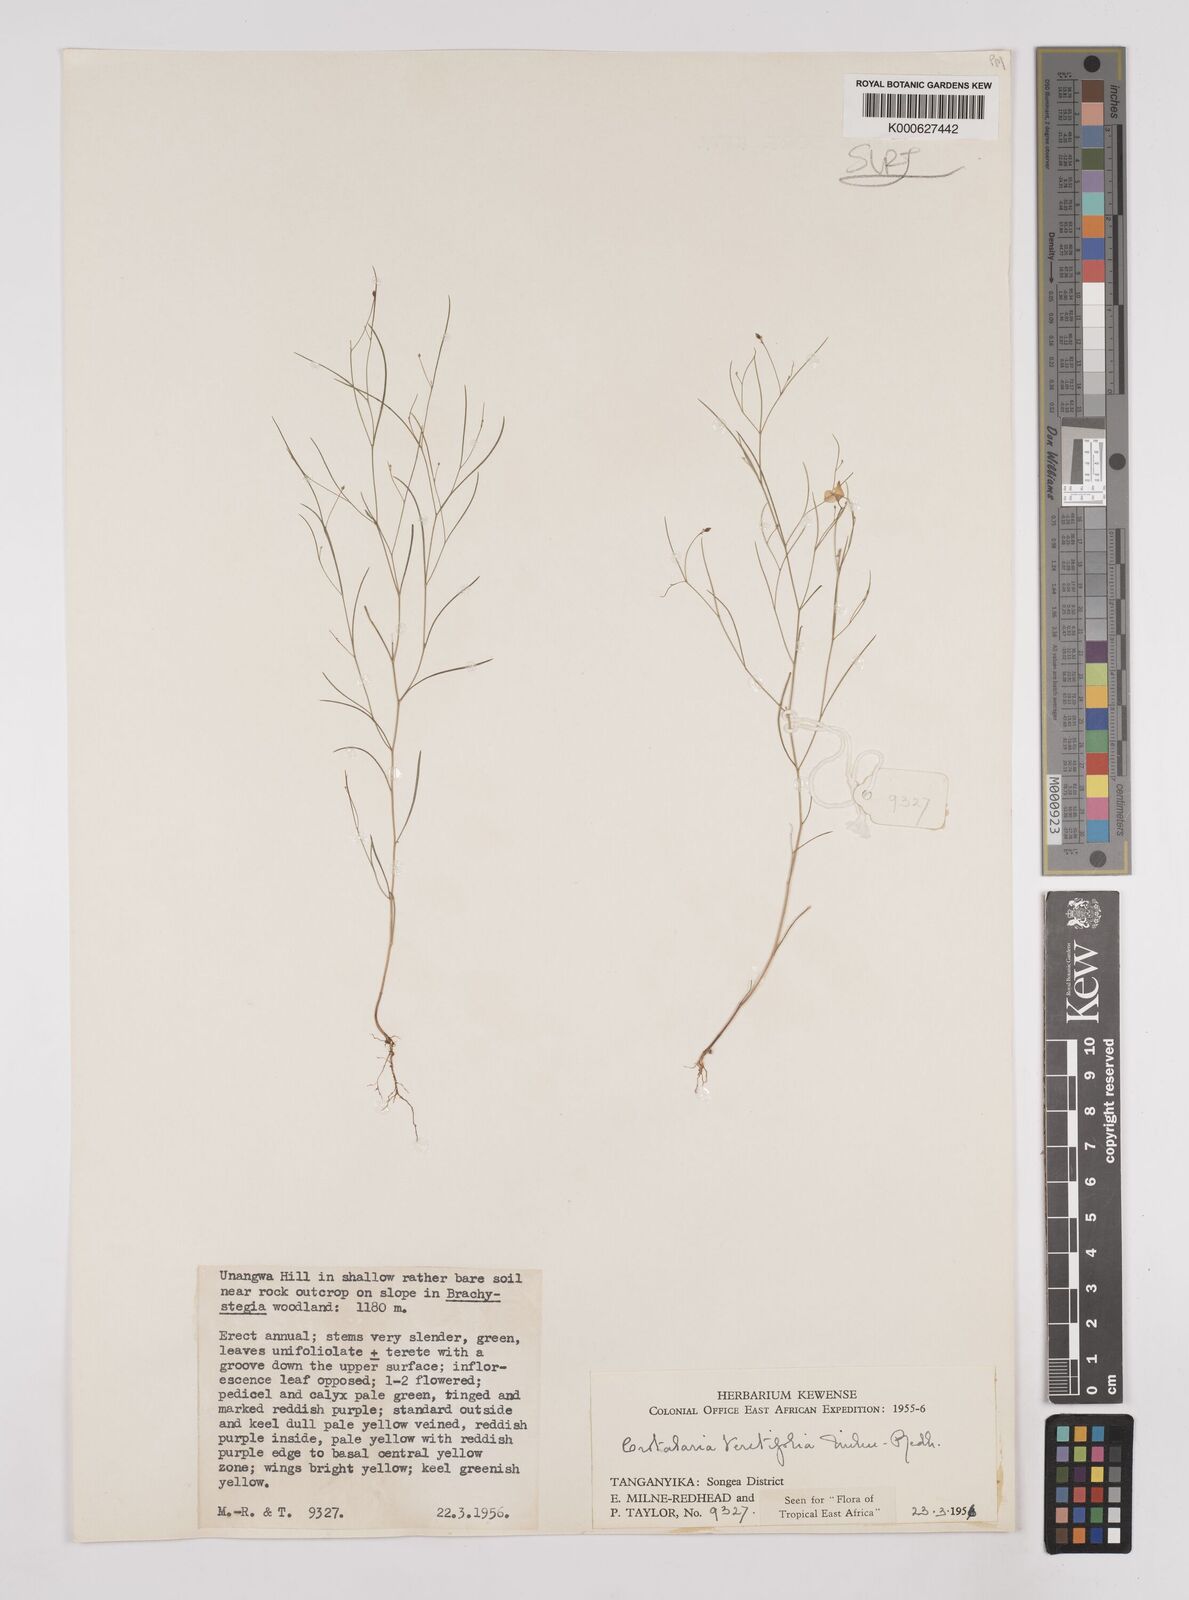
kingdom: Plantae
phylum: Tracheophyta
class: Magnoliopsida
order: Fabales
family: Fabaceae
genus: Crotalaria
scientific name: Crotalaria teretifolia
